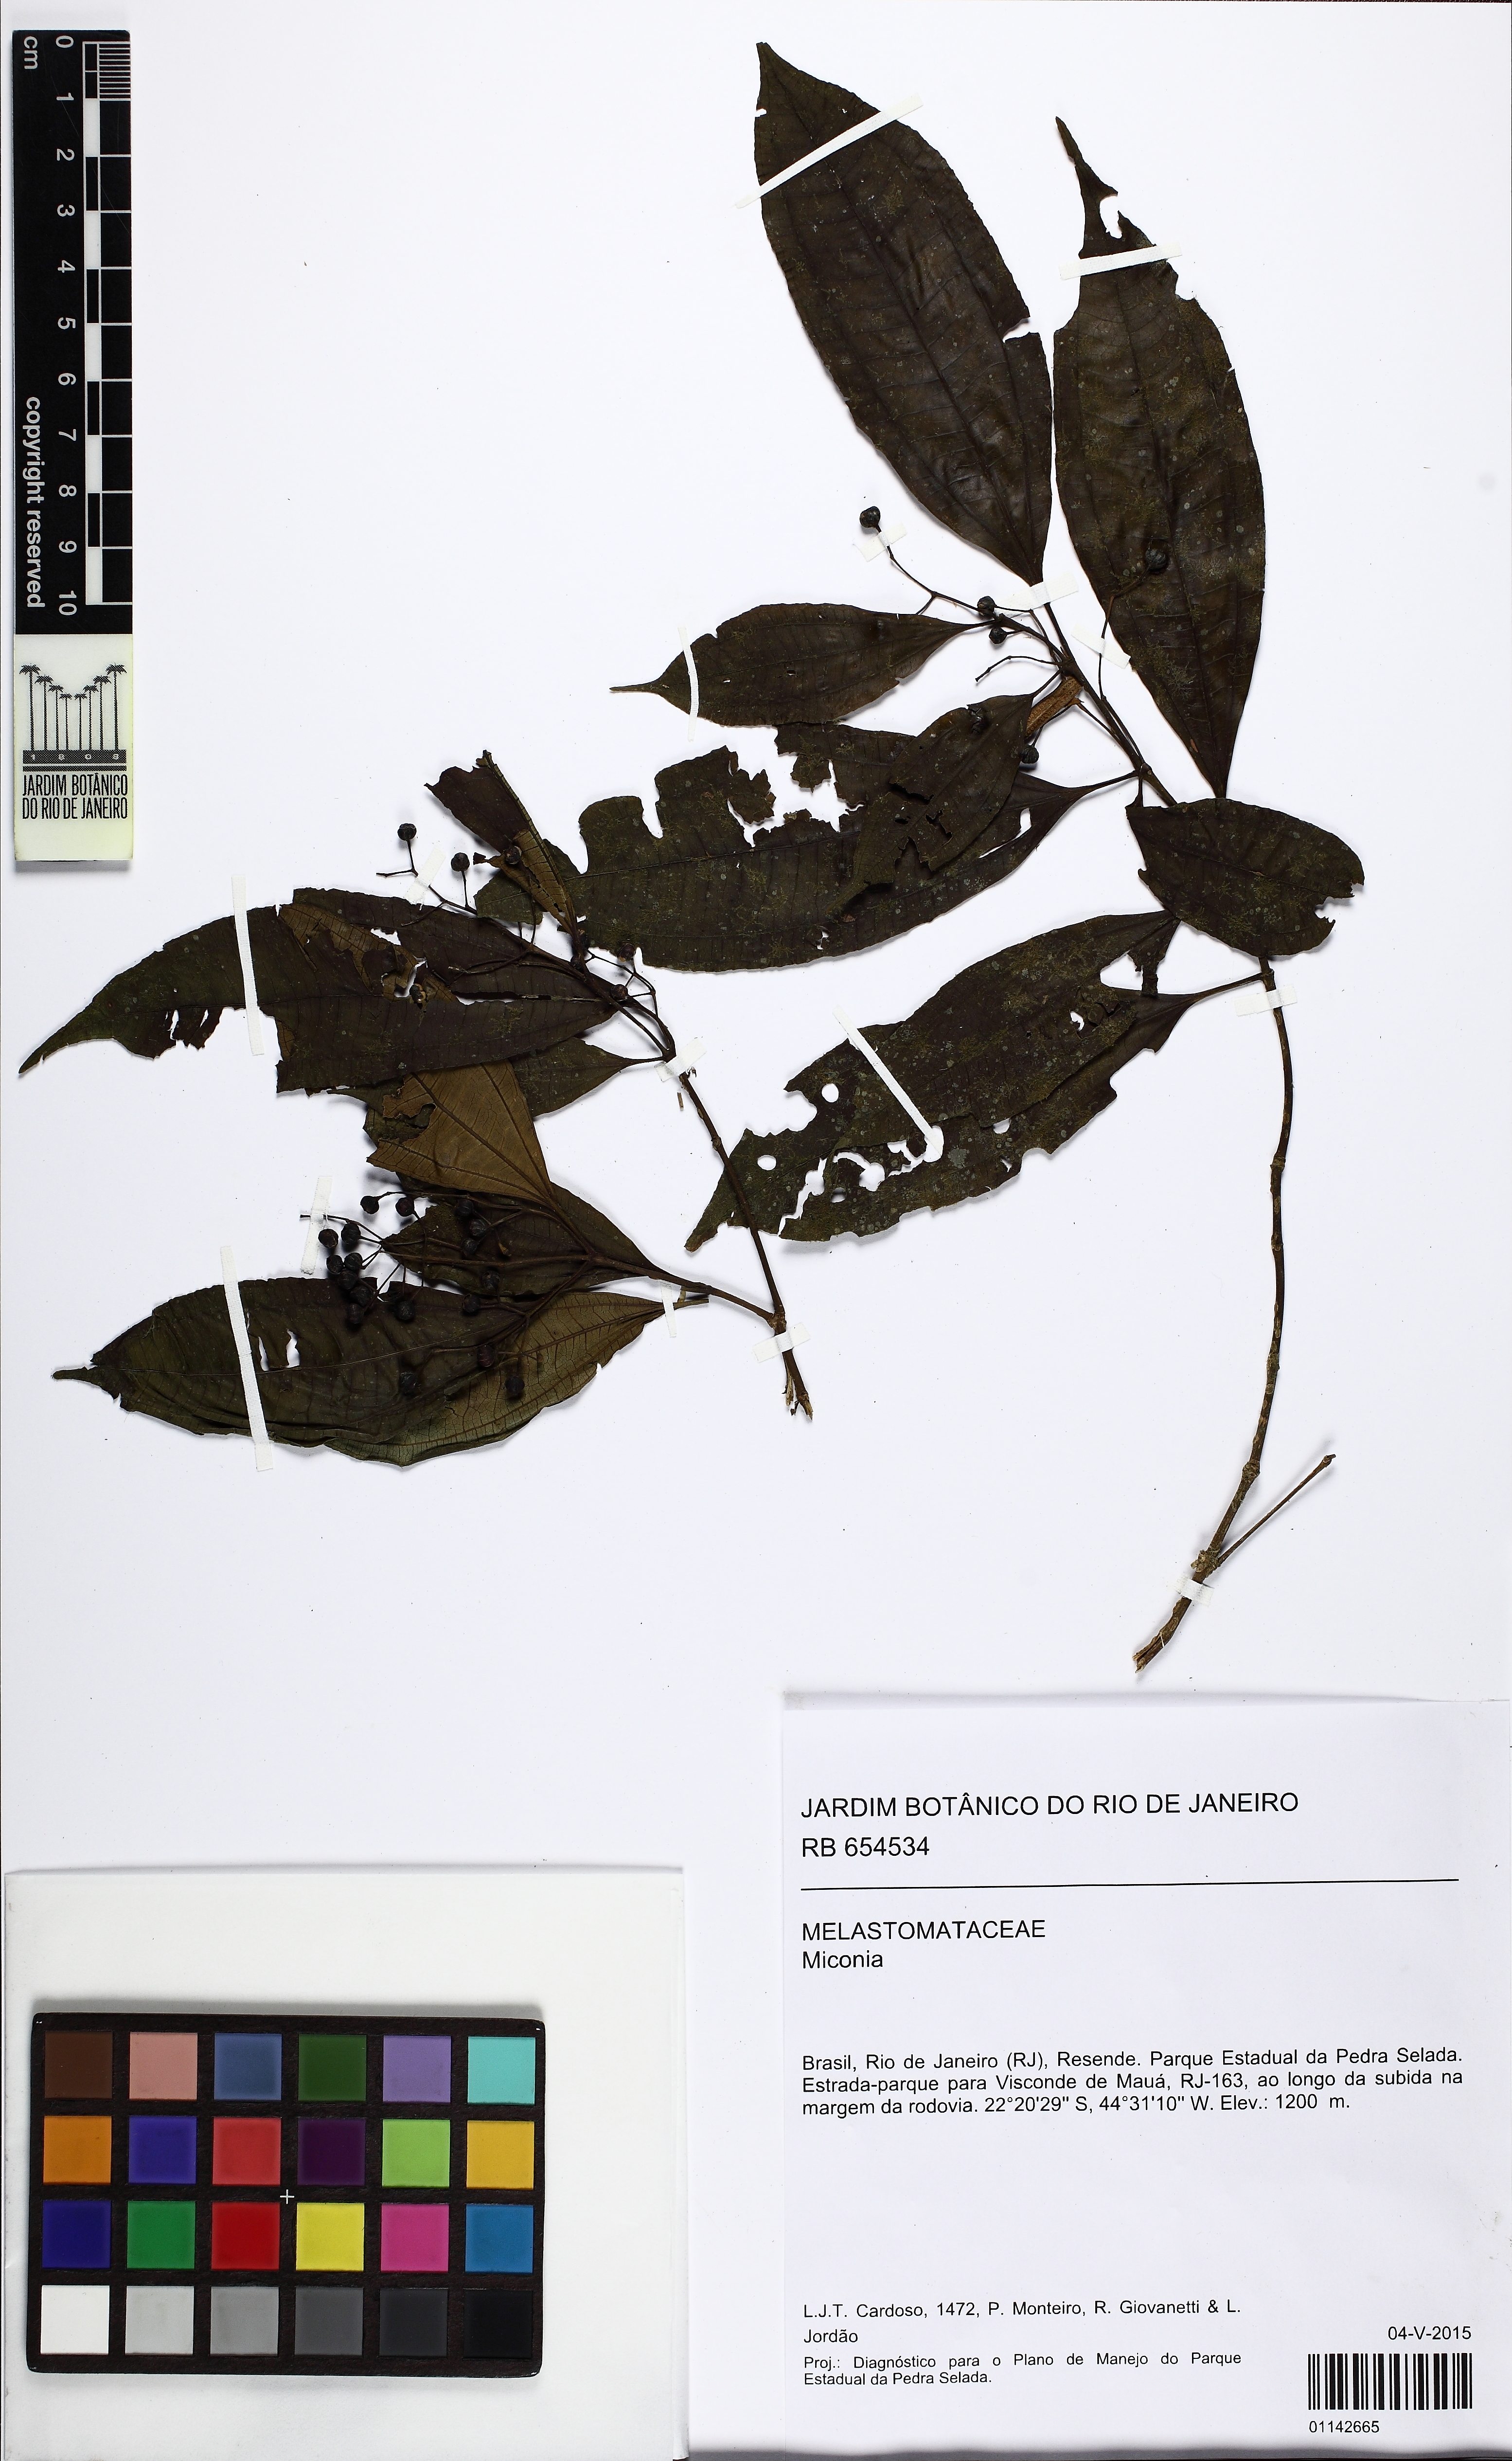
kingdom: Plantae
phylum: Tracheophyta
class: Magnoliopsida
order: Myrtales
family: Melastomataceae
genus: Miconia
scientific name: Miconia
